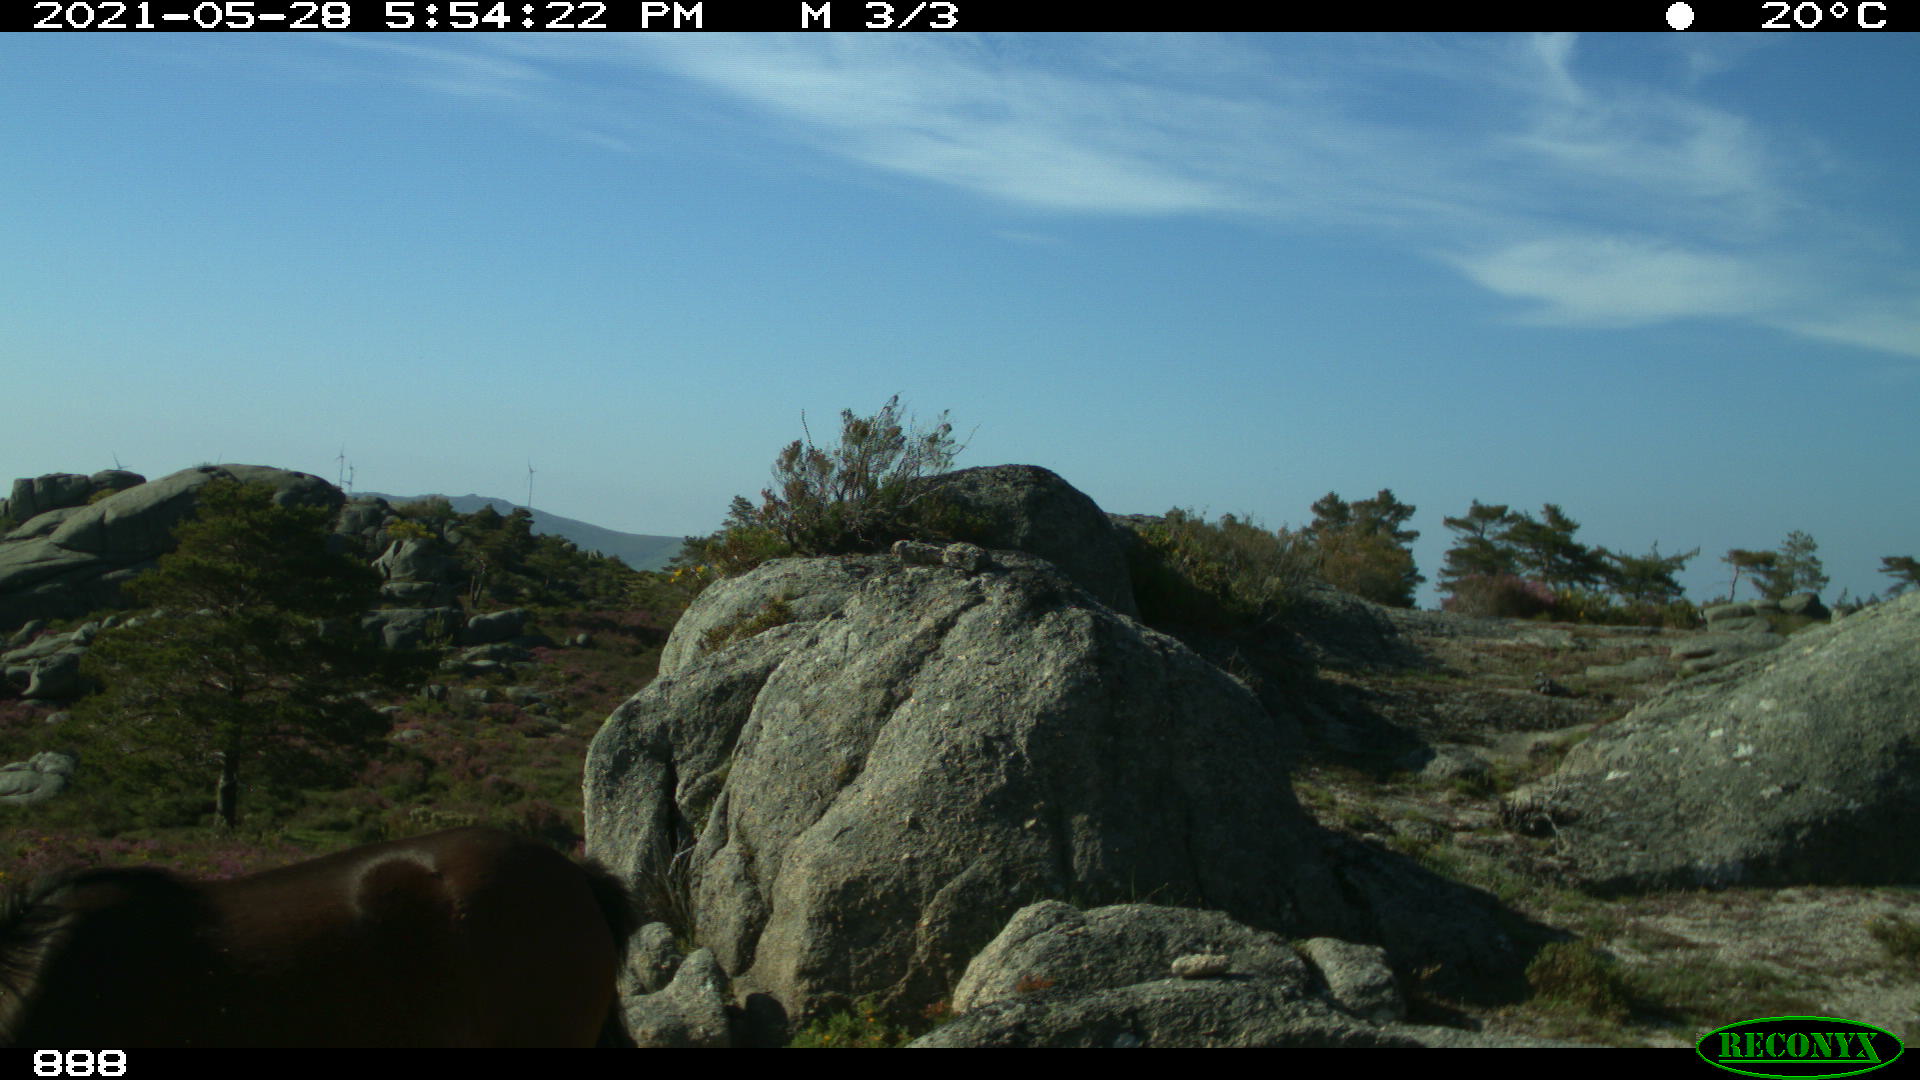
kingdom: Animalia
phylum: Chordata
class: Mammalia
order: Perissodactyla
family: Equidae
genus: Equus
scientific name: Equus caballus
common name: Horse
